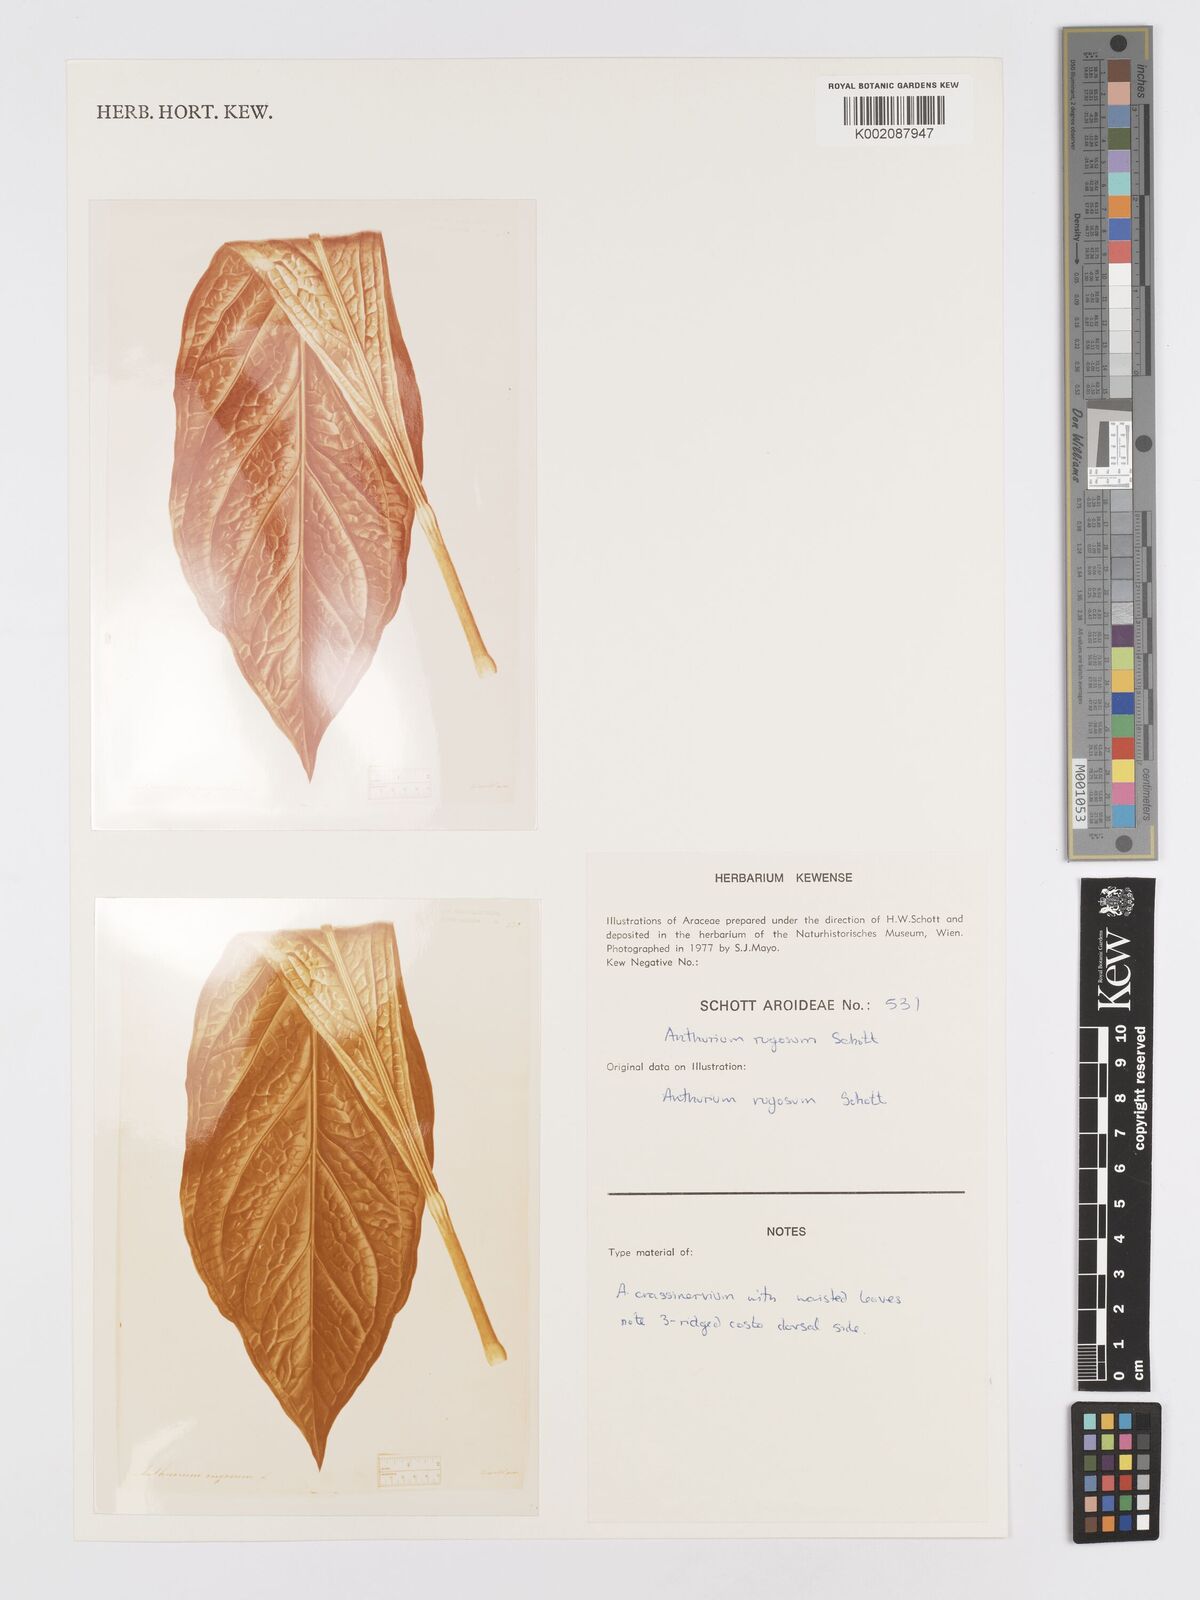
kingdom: Plantae
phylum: Tracheophyta
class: Liliopsida
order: Alismatales
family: Araceae
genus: Anthurium
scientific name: Anthurium crassinervium
